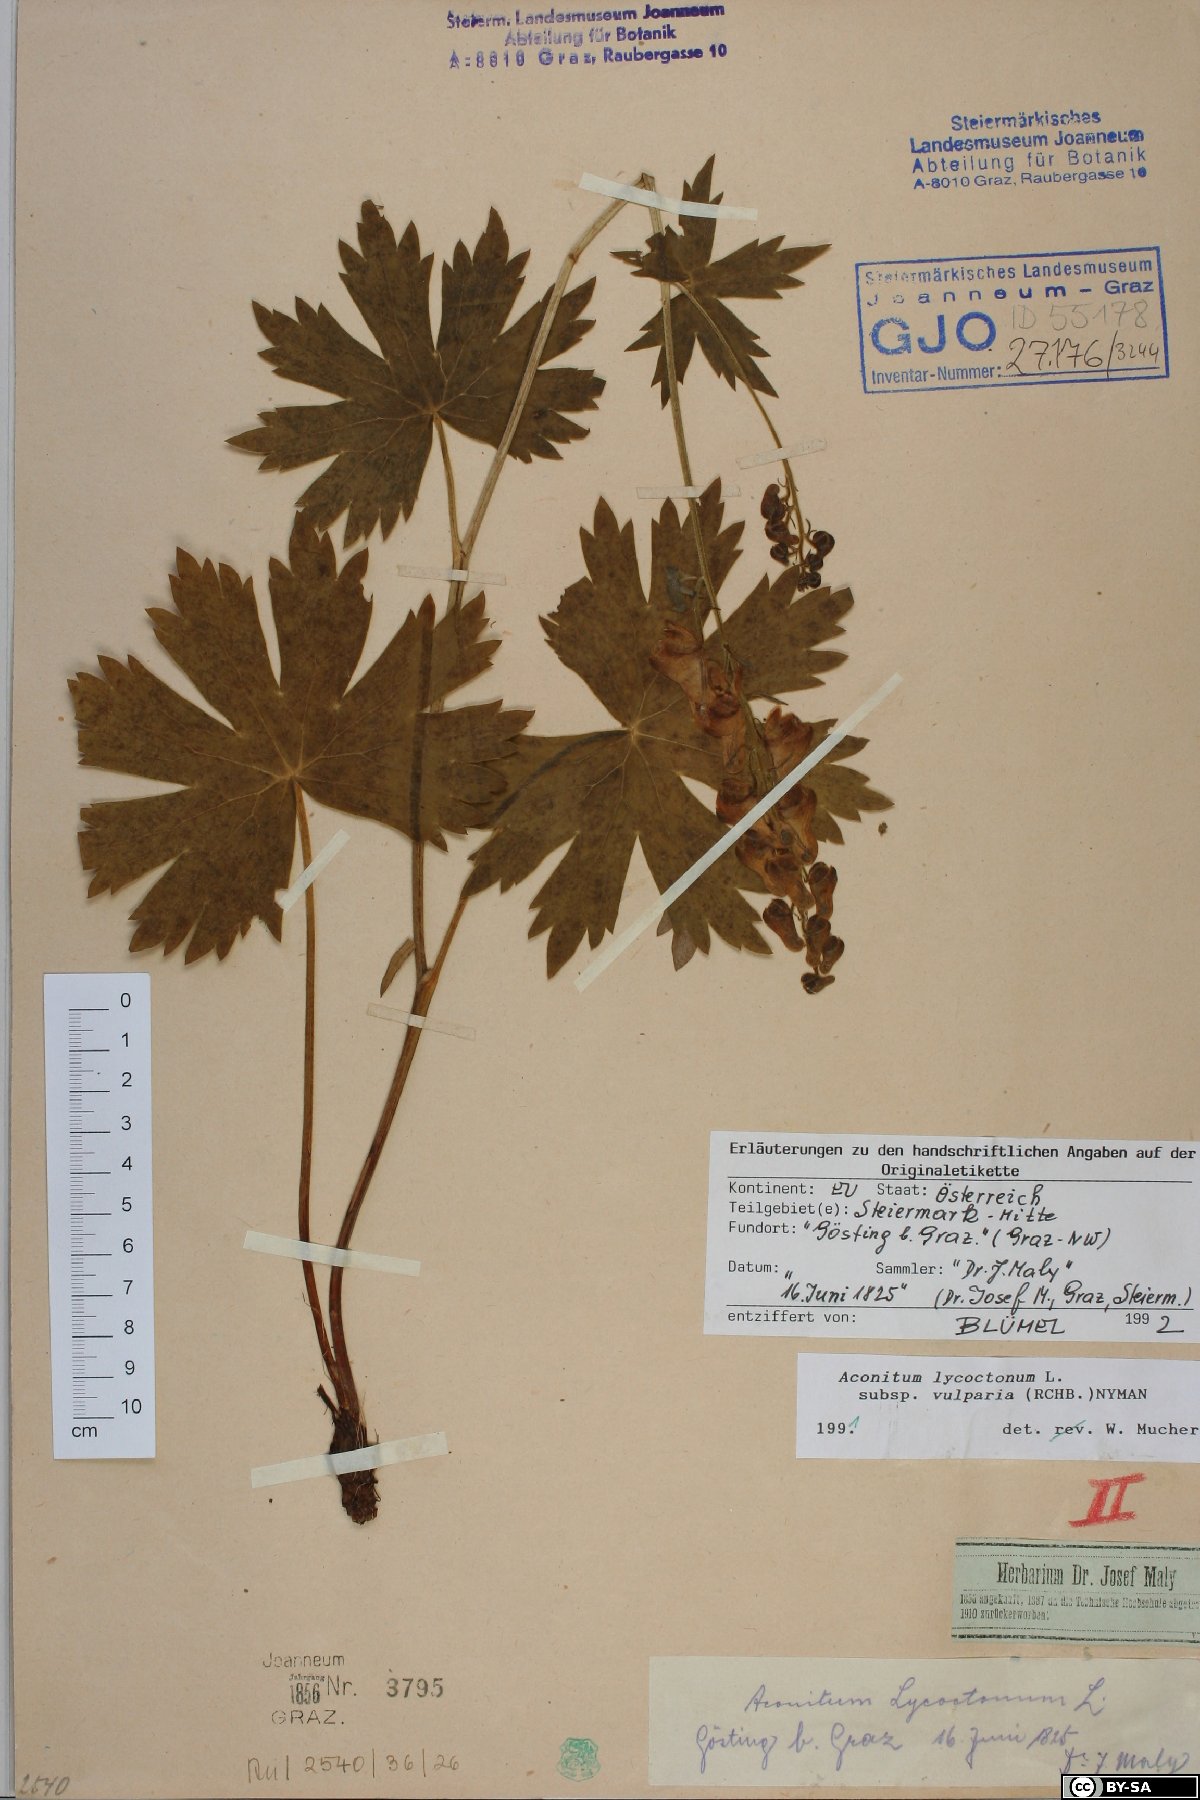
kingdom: Plantae
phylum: Tracheophyta
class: Magnoliopsida
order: Ranunculales
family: Ranunculaceae
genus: Aconitum
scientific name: Aconitum lycoctonum
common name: Wolf's-bane
